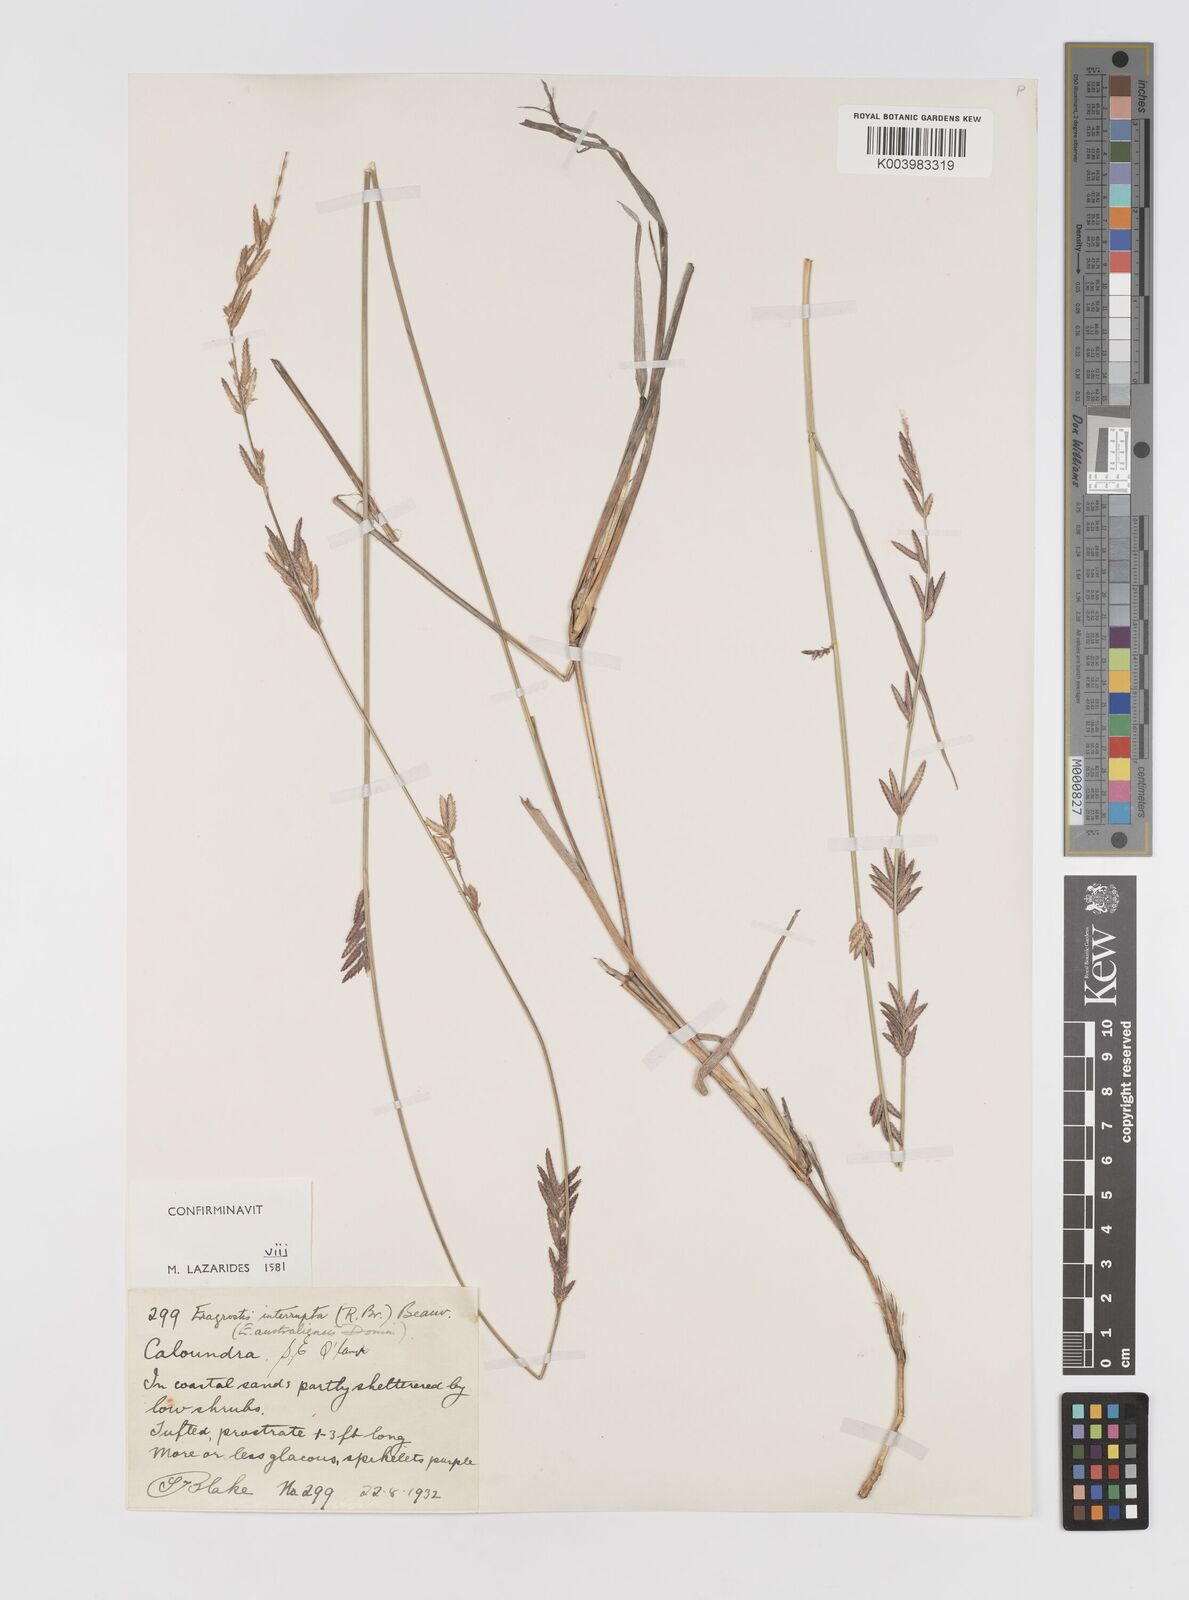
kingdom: Plantae
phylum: Tracheophyta
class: Liliopsida
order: Poales
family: Poaceae
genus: Eragrostis
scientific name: Eragrostis interrupta
